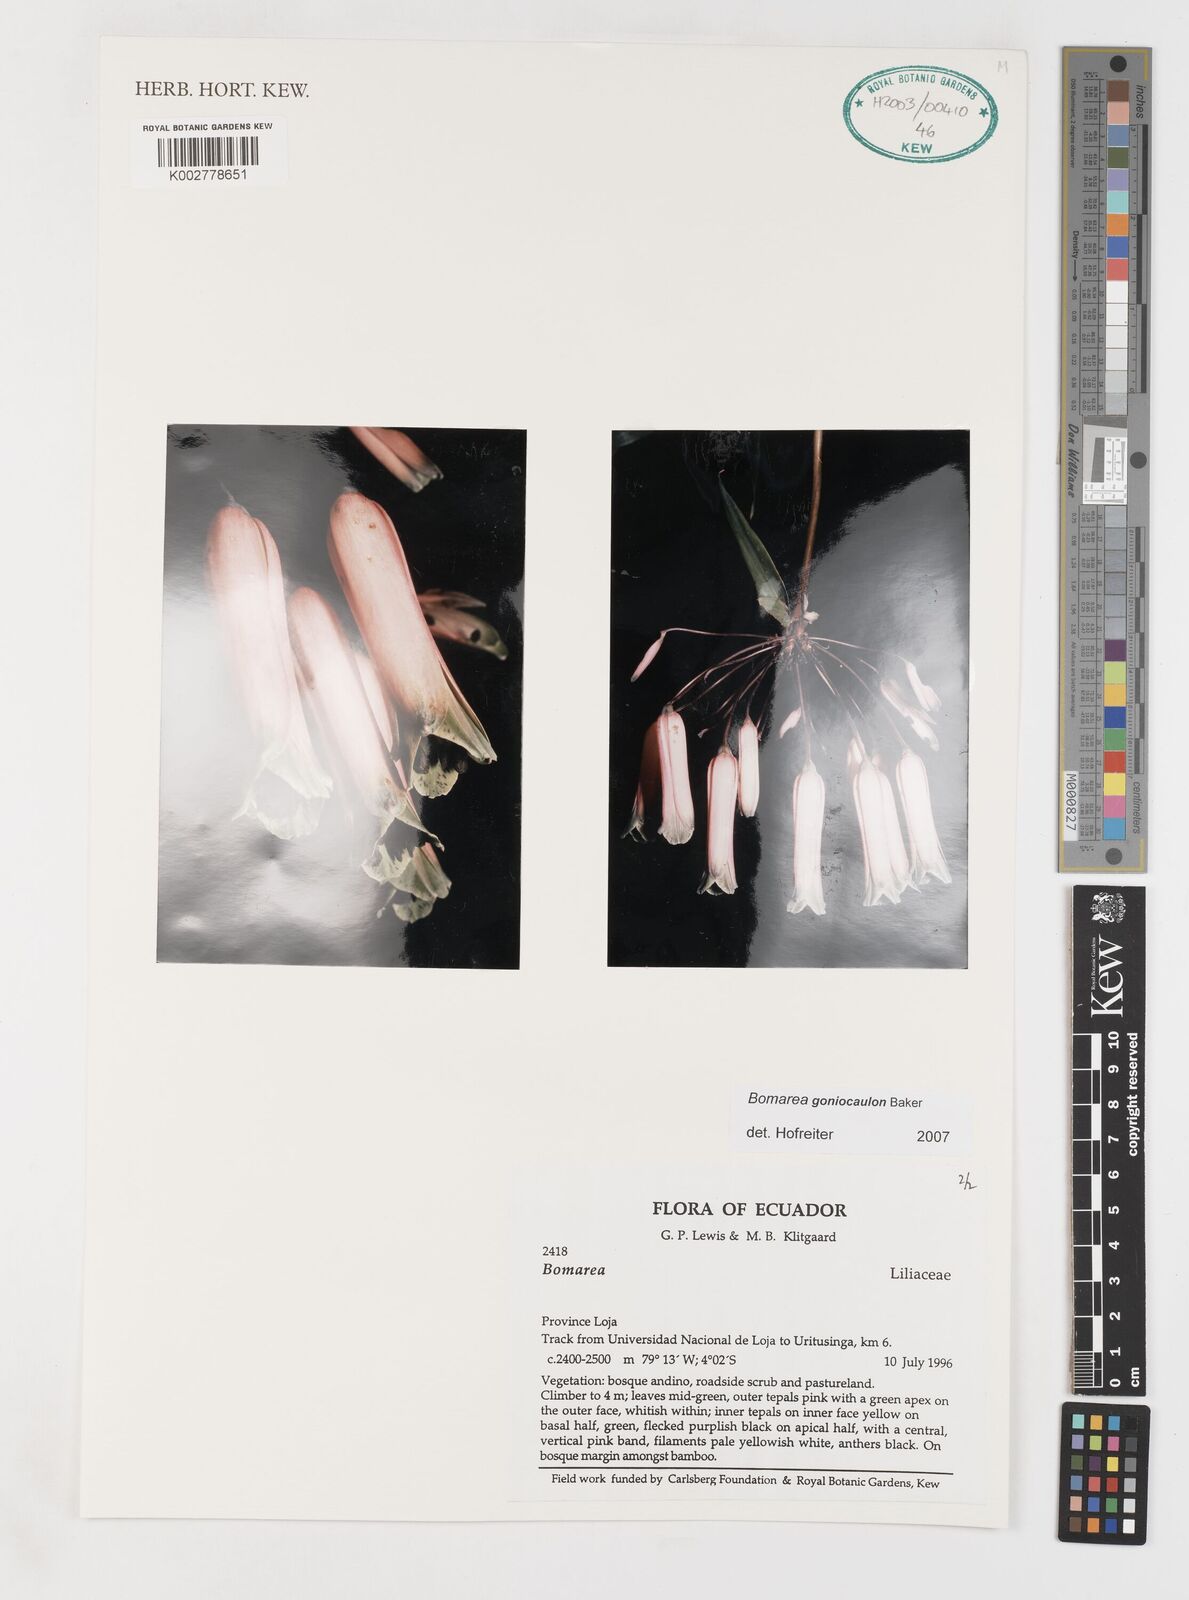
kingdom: Plantae
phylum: Tracheophyta
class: Liliopsida
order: Liliales
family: Alstroemeriaceae
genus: Bomarea
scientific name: Bomarea goniocaulon
